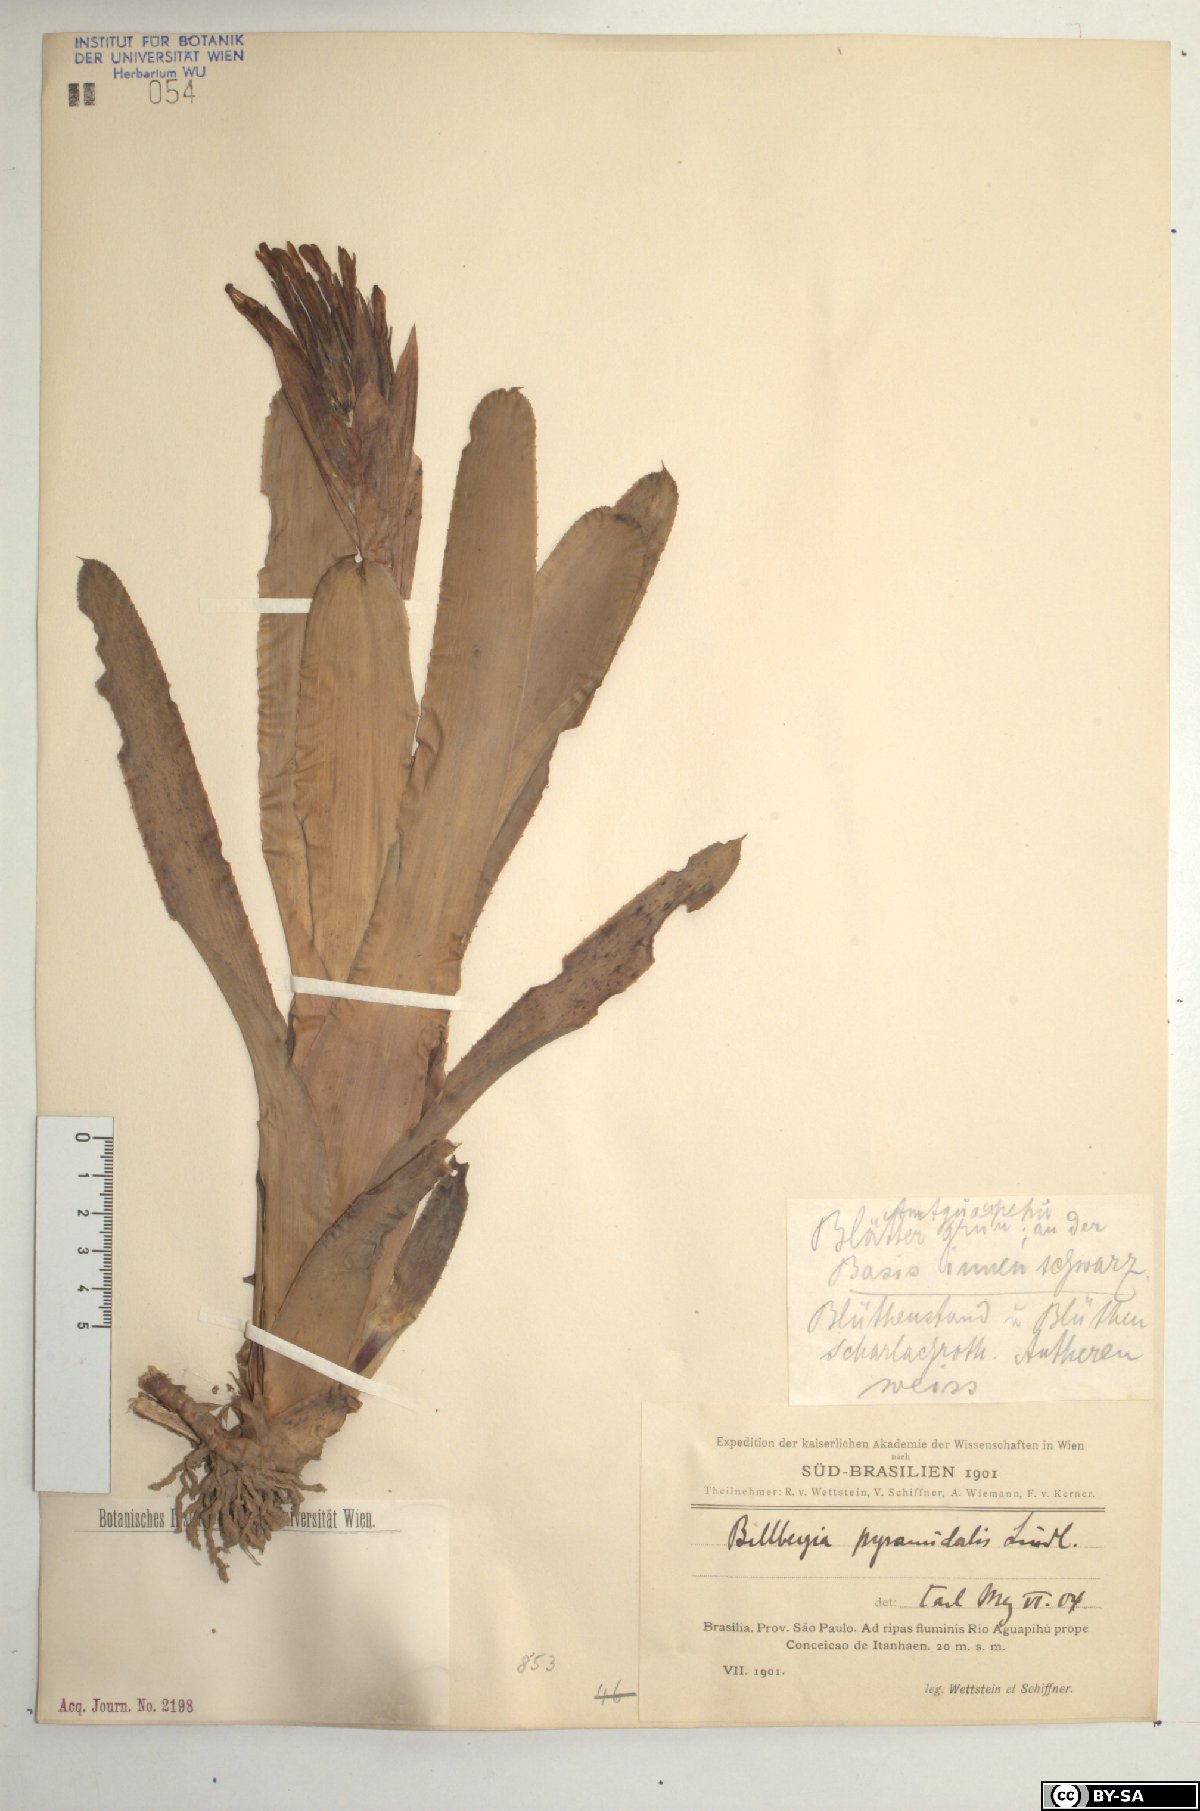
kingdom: Plantae
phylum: Tracheophyta
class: Liliopsida
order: Poales
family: Bromeliaceae
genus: Billbergia
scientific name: Billbergia pyramidalis
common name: Foolproofplant
